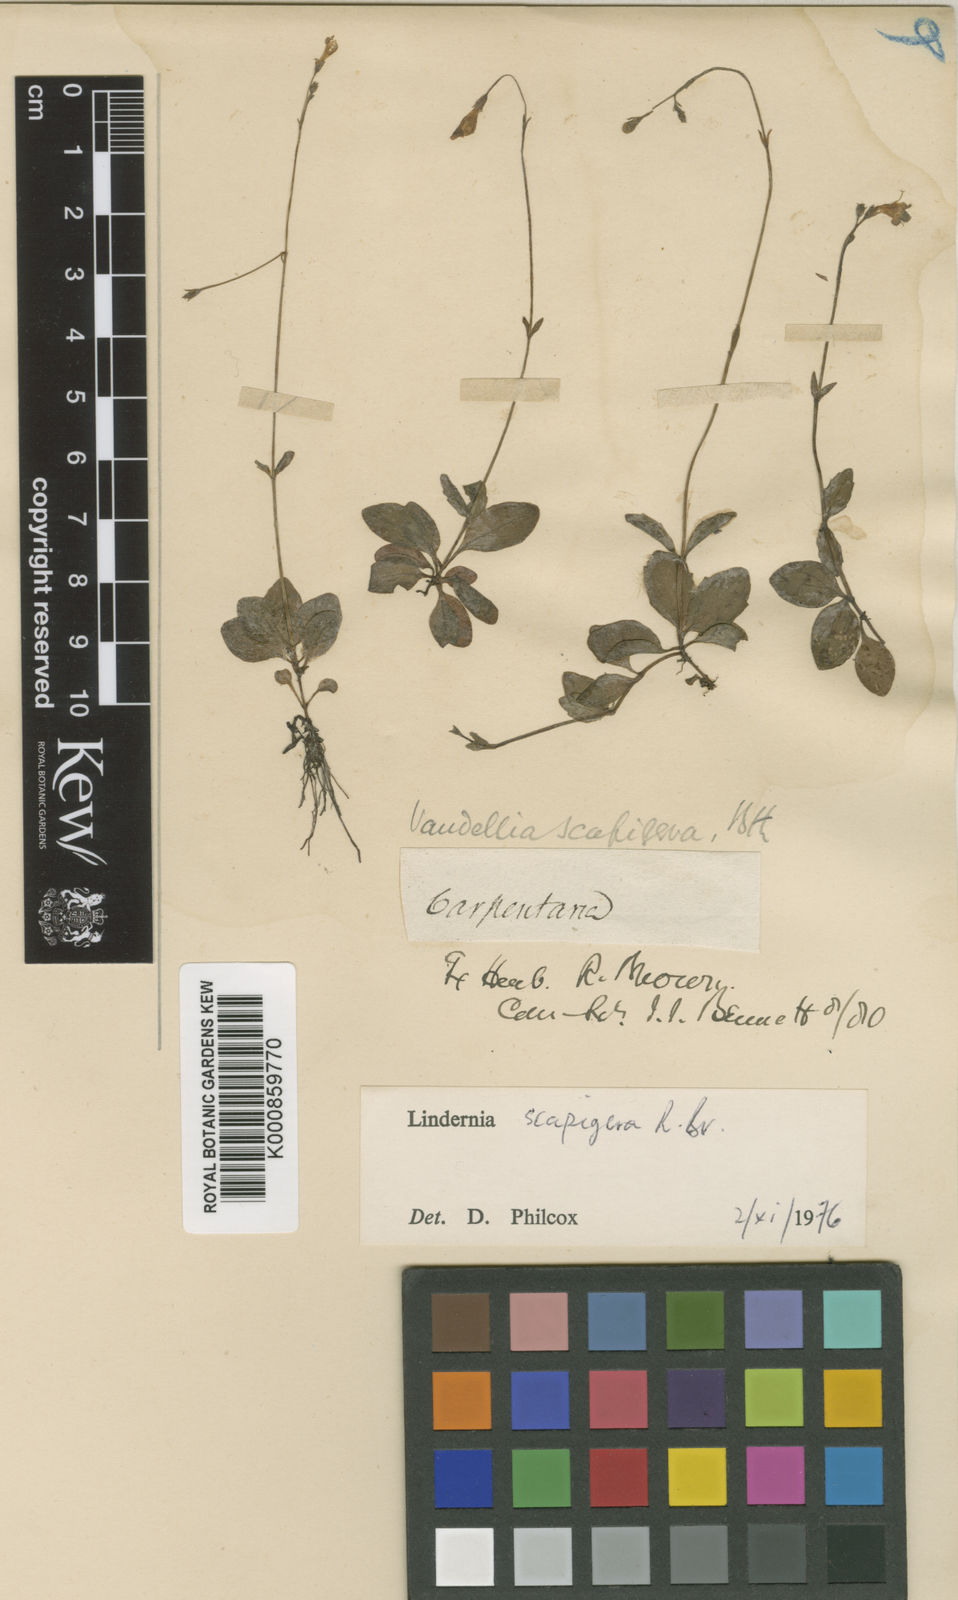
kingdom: Plantae
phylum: Tracheophyta
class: Magnoliopsida
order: Lamiales
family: Linderniaceae
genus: Vandellia
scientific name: Vandellia scapigera
